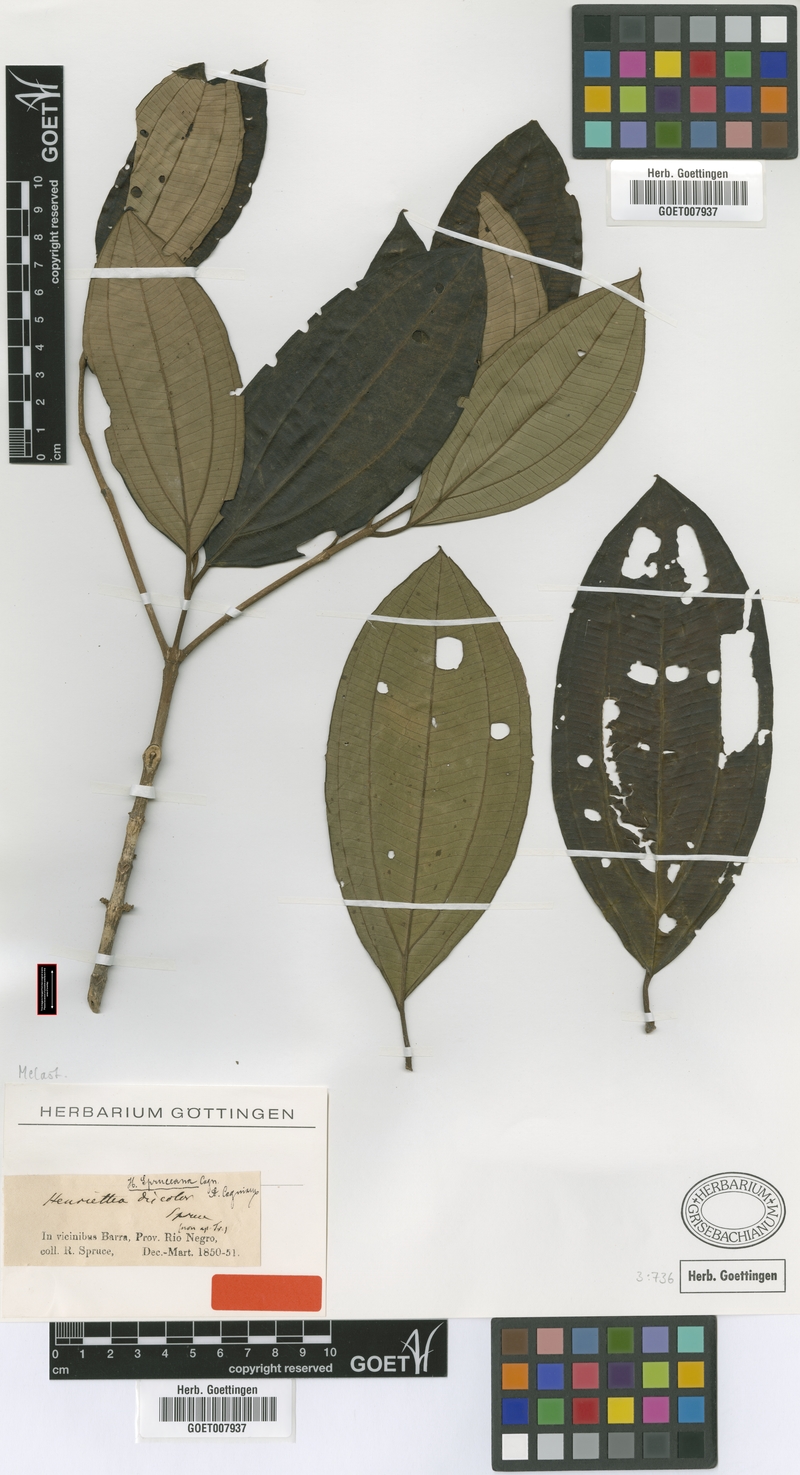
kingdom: Plantae
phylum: Tracheophyta
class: Magnoliopsida
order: Myrtales
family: Melastomataceae
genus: Henriettea
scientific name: Henriettea spruceana
